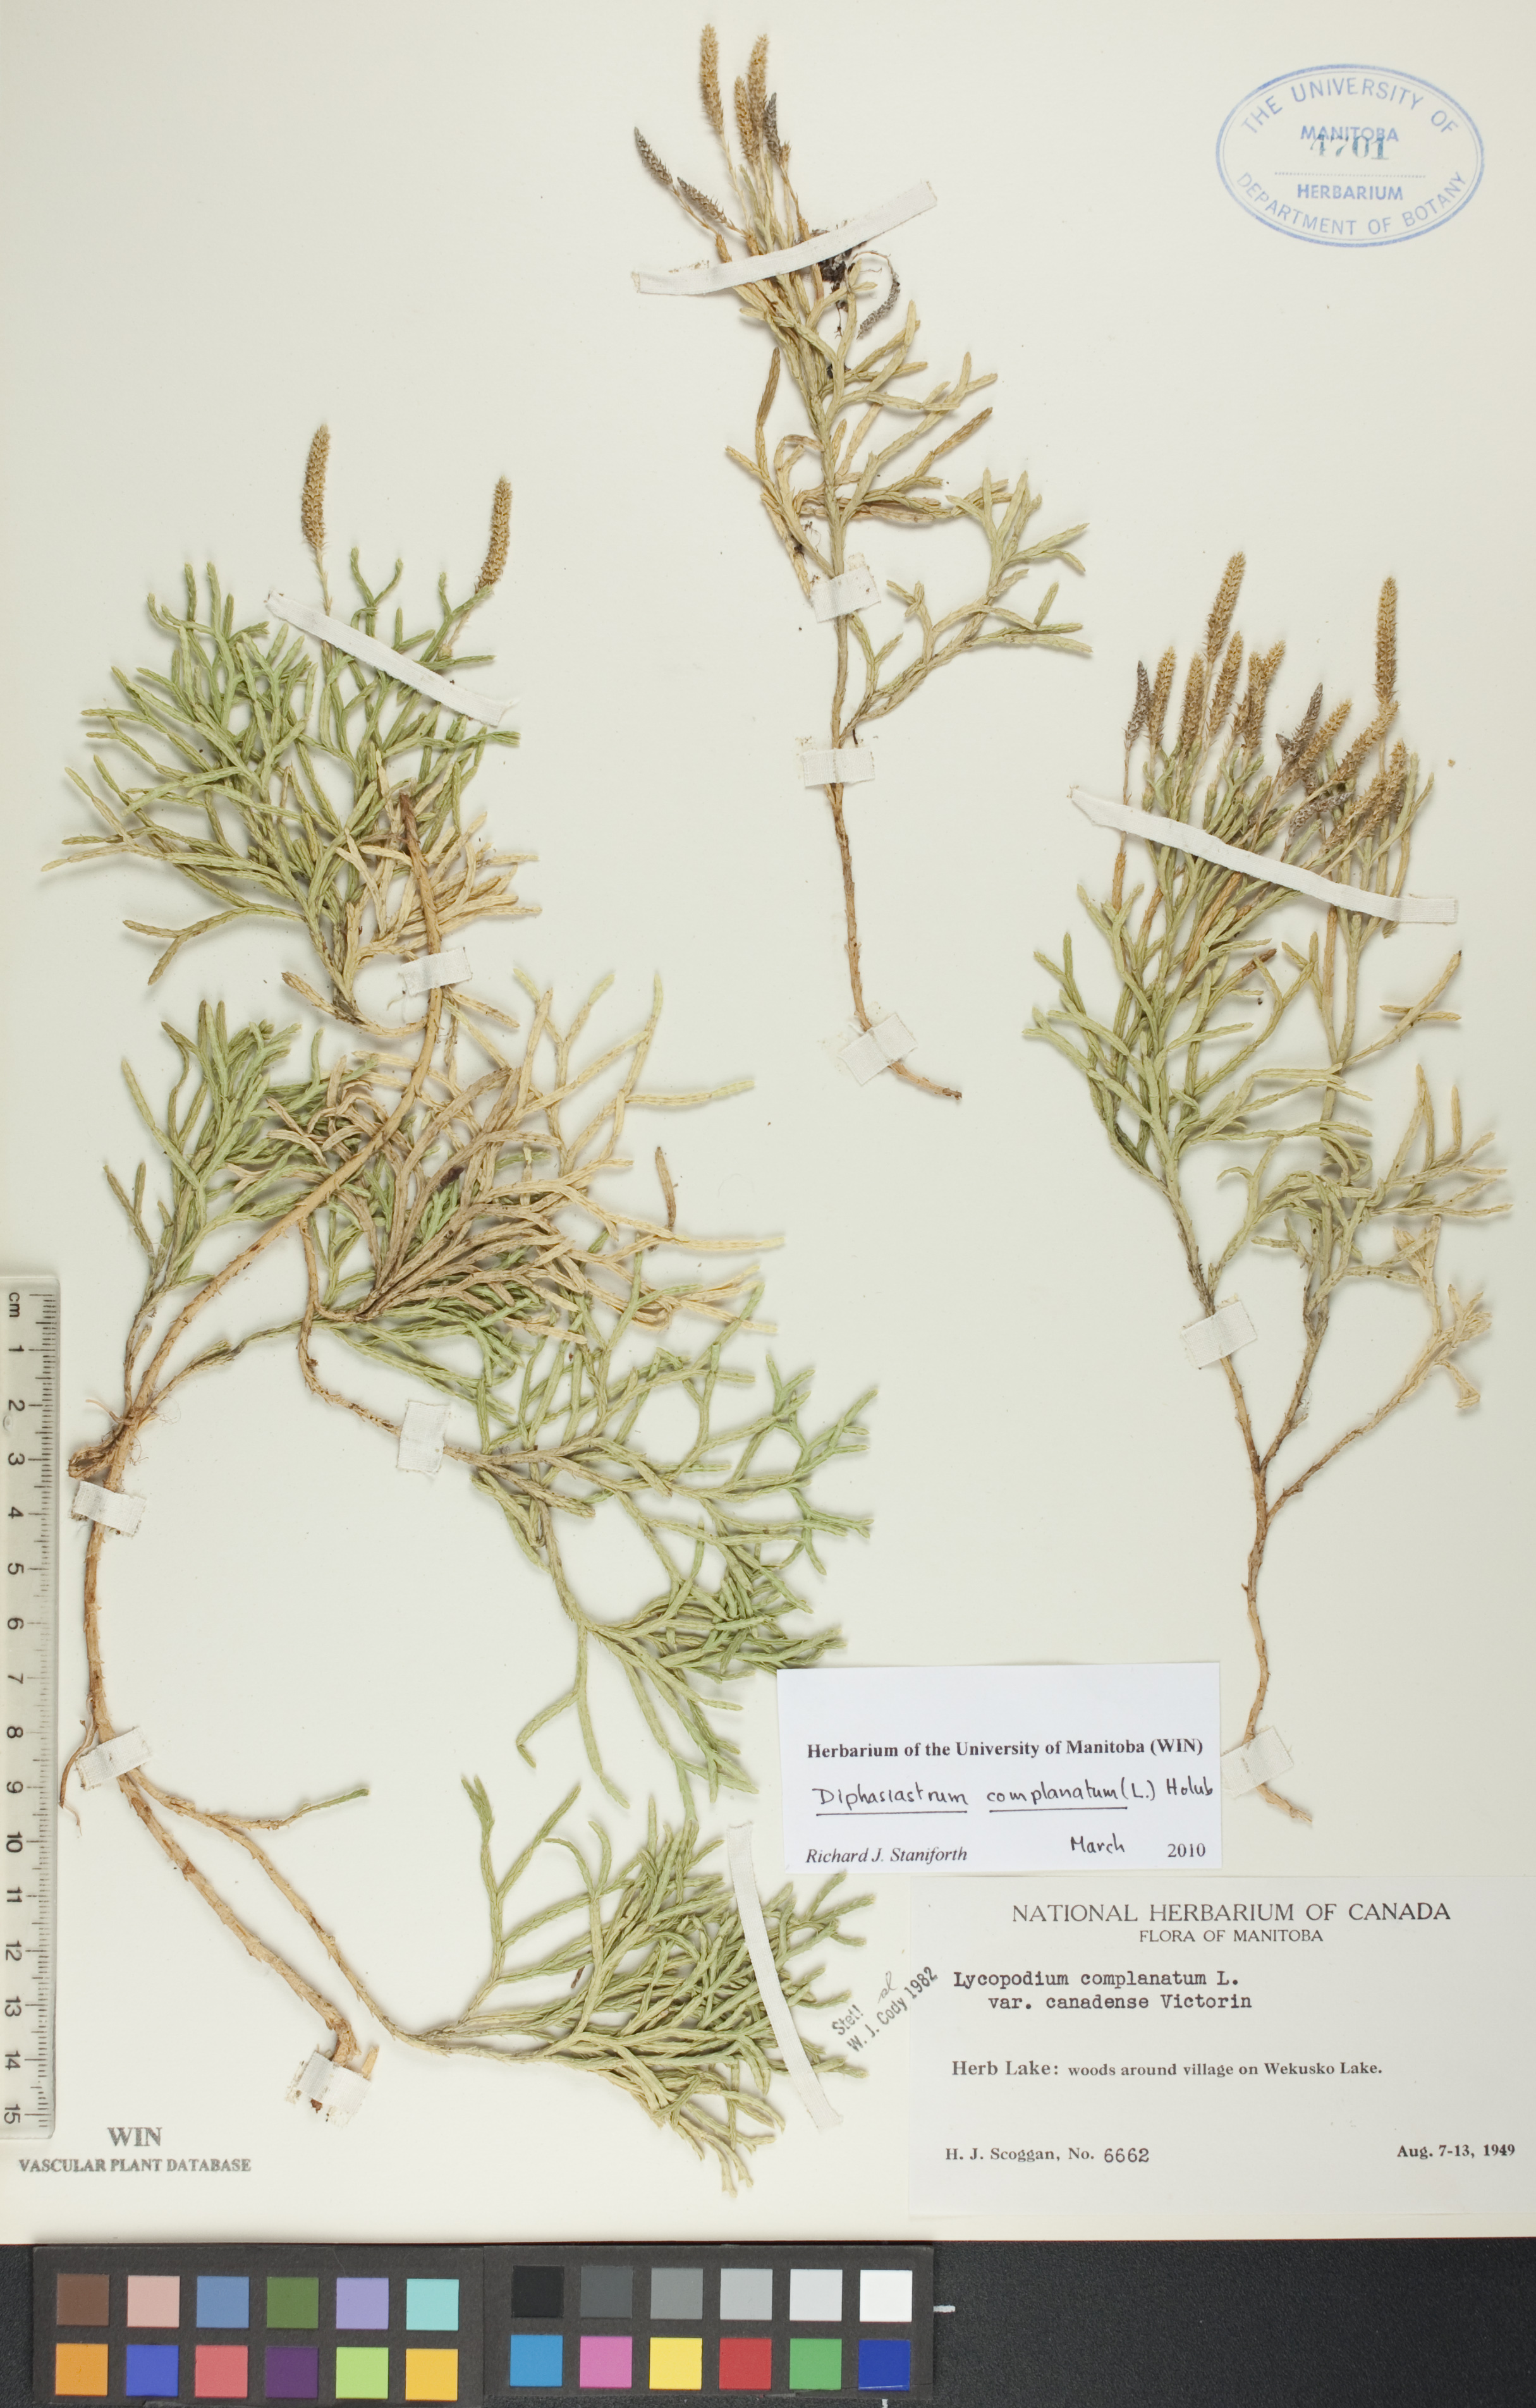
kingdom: Plantae
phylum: Tracheophyta
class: Lycopodiopsida
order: Lycopodiales
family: Lycopodiaceae
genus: Diphasiastrum
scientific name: Diphasiastrum complanatum
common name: Northern running-pine
